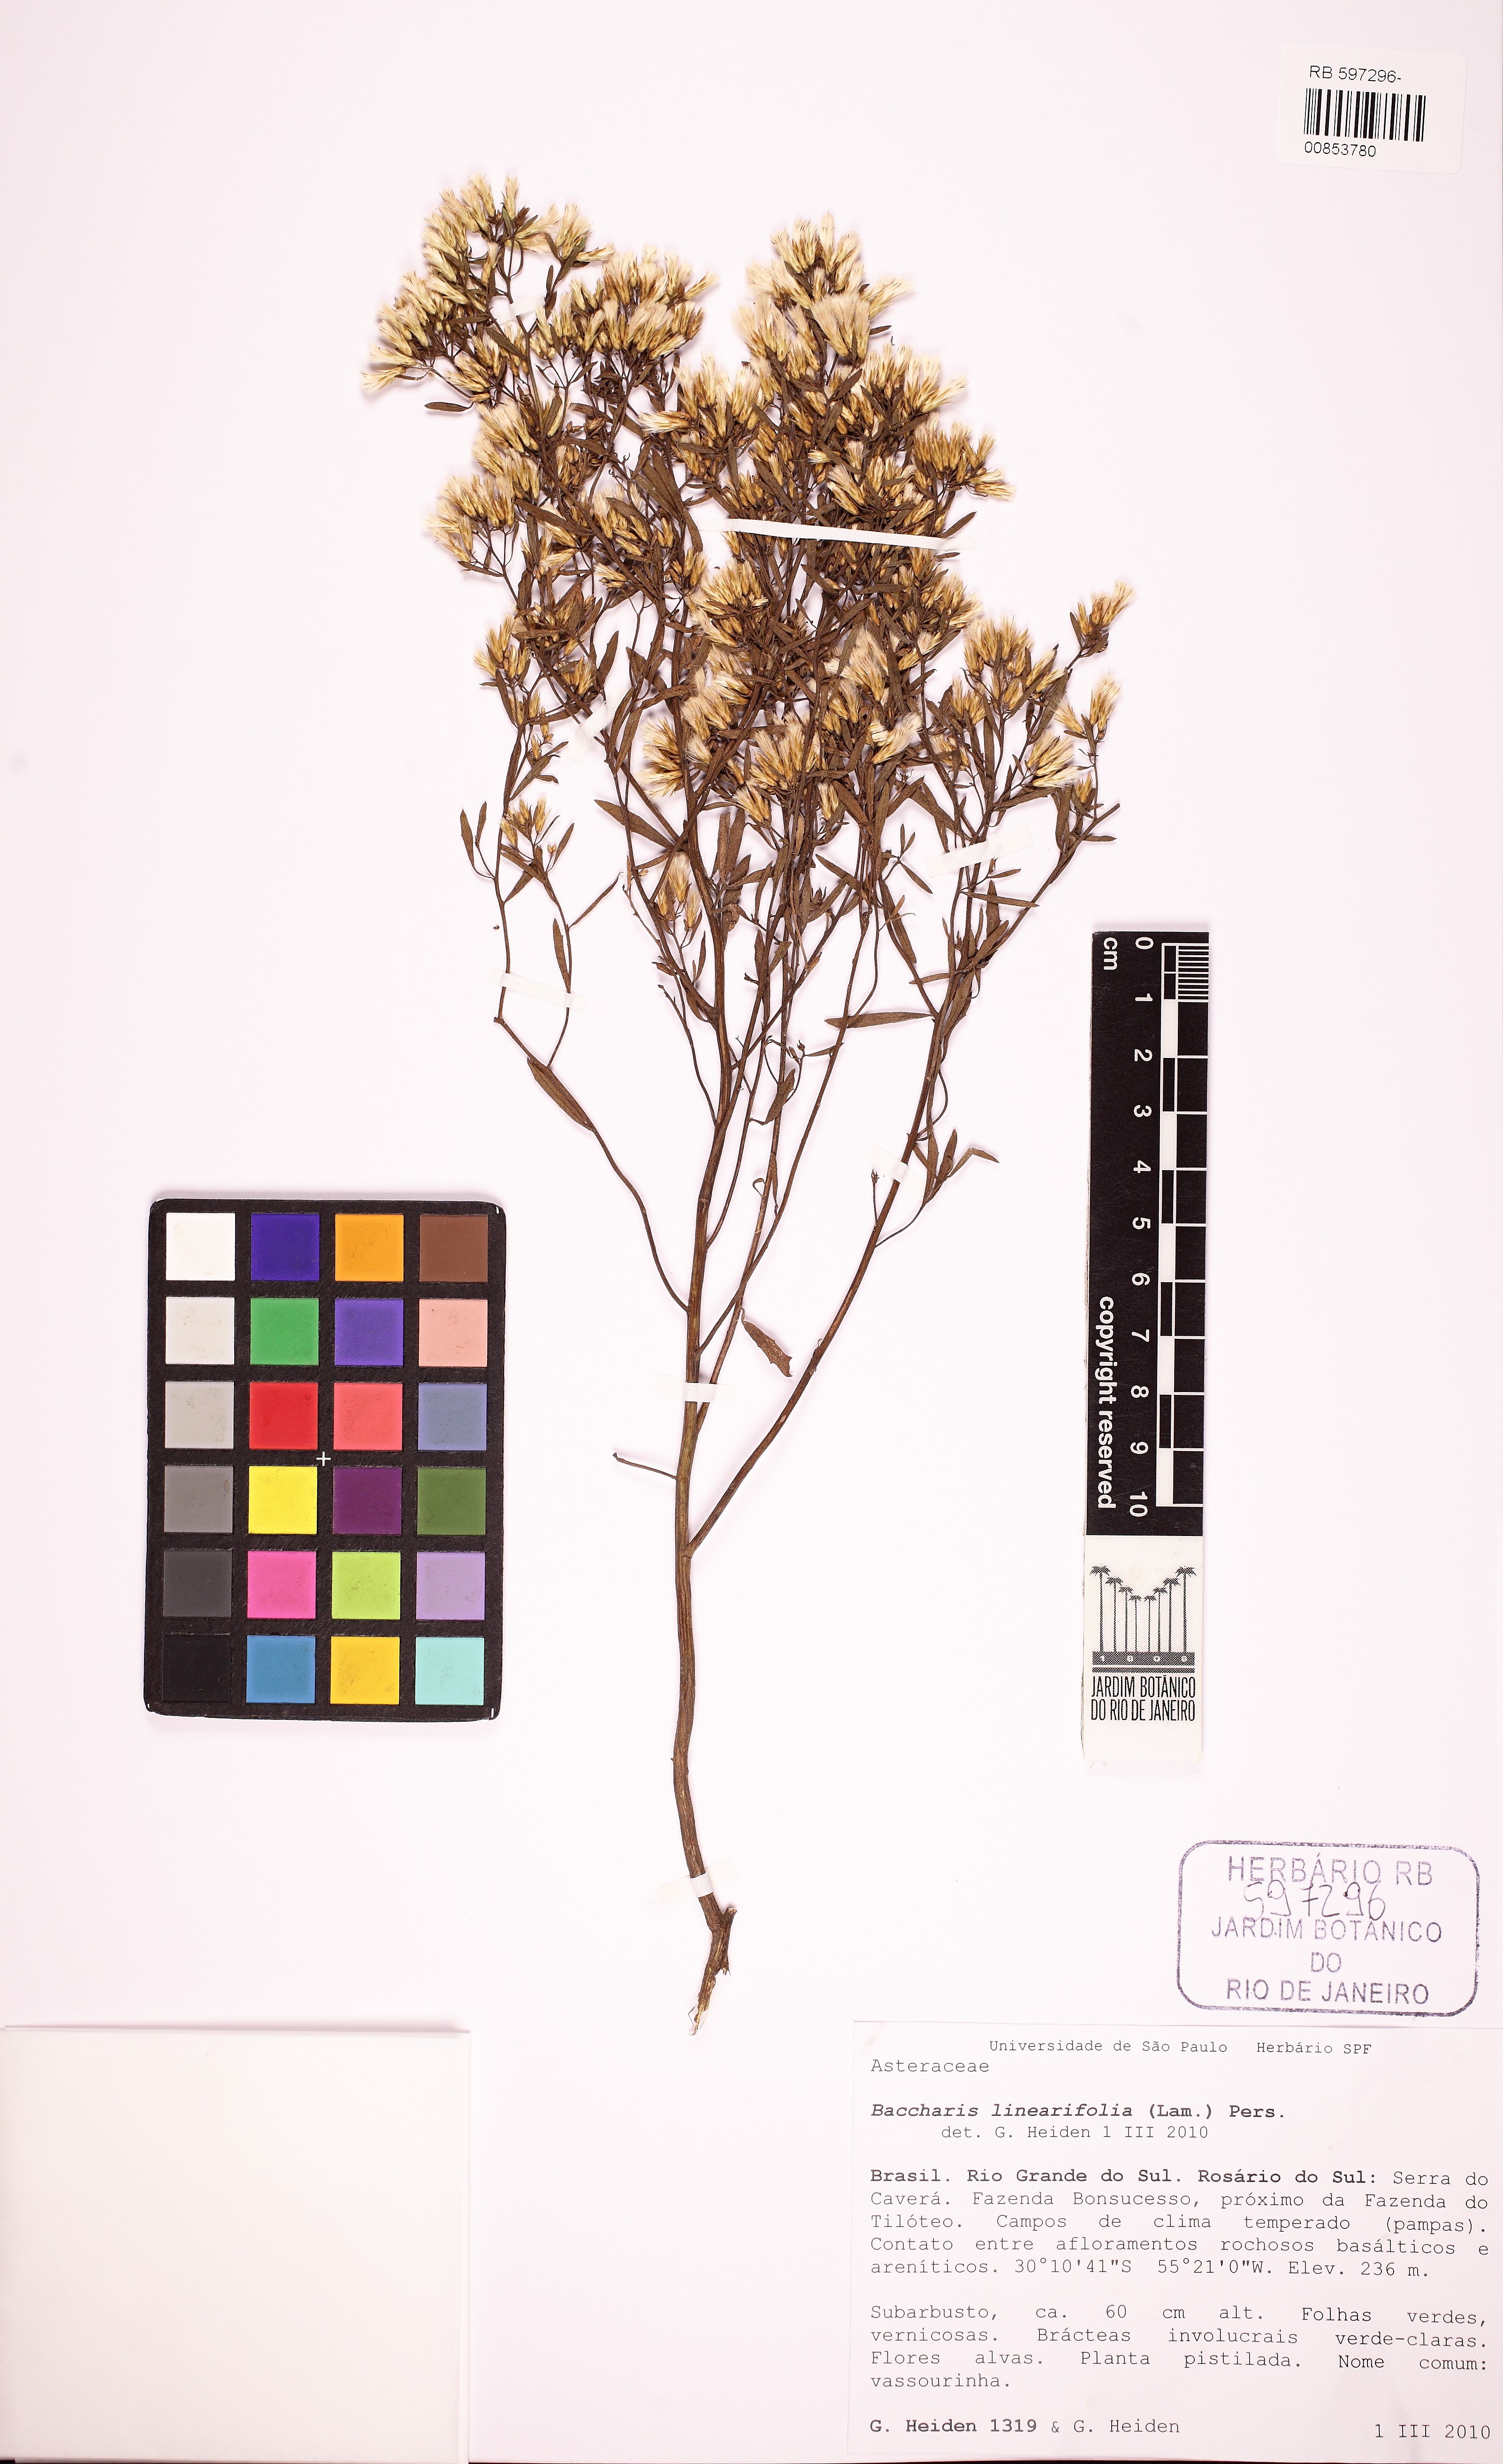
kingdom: Plantae
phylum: Tracheophyta
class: Magnoliopsida
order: Asterales
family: Asteraceae
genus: Baccharis
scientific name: Baccharis linearifolia
